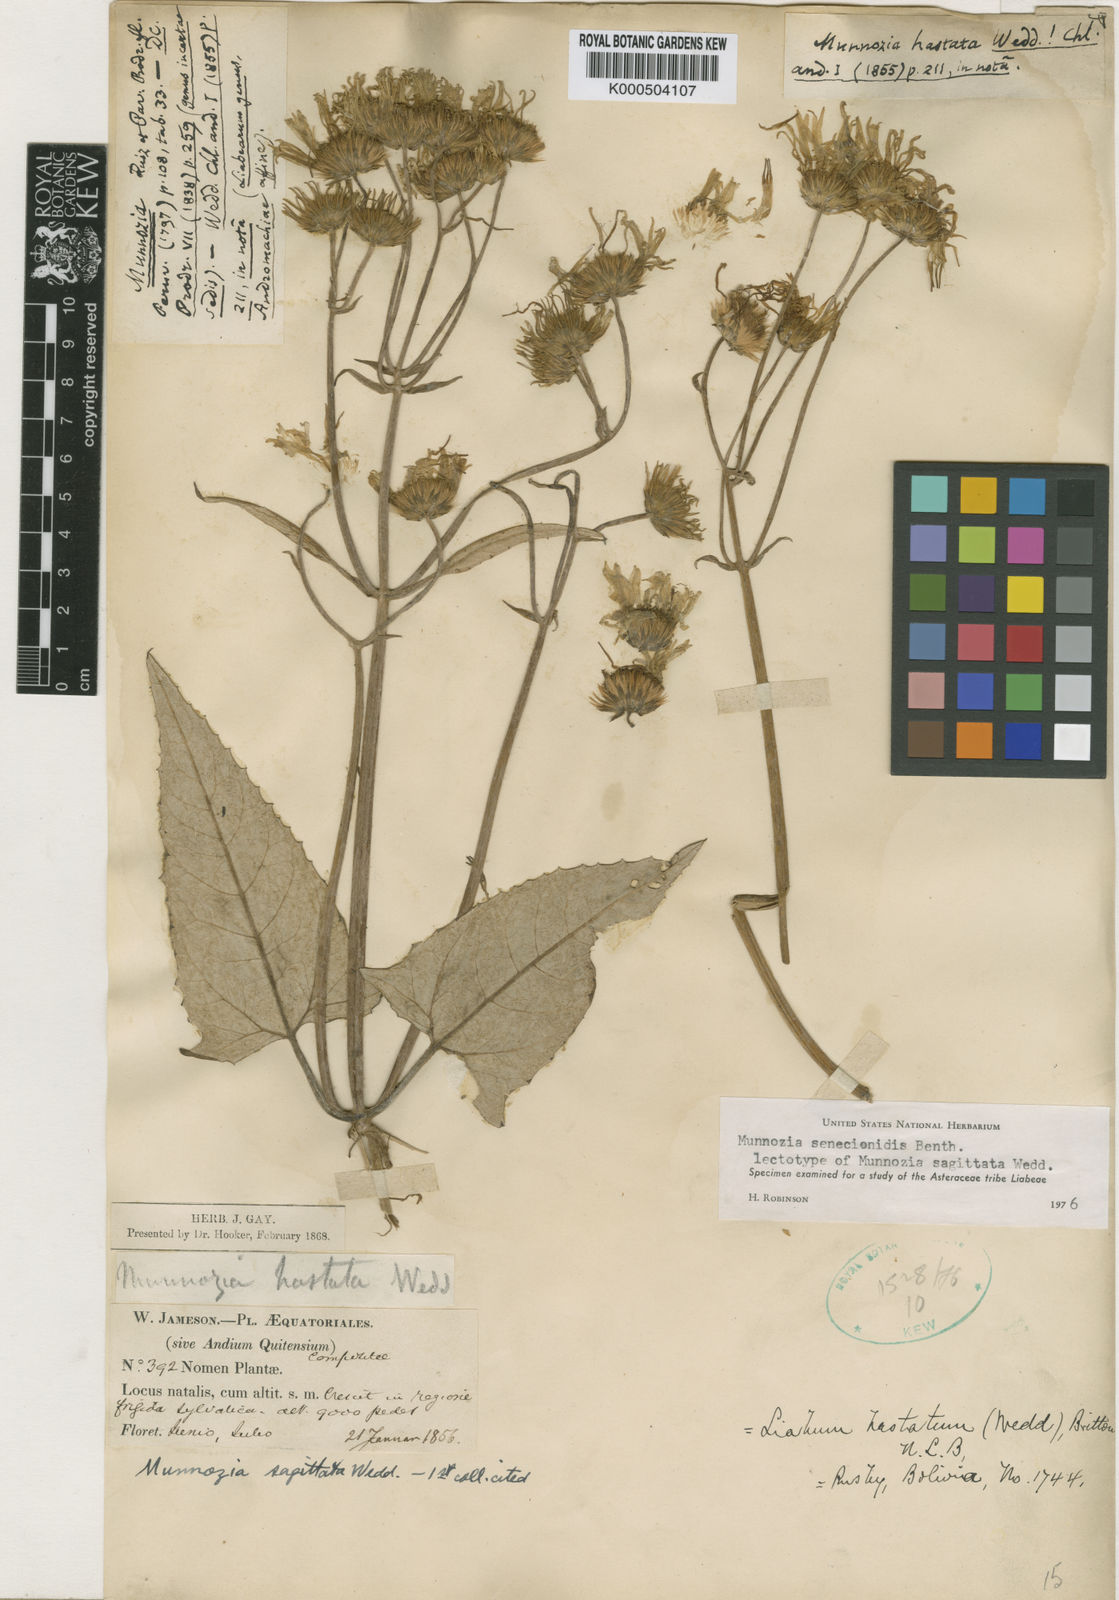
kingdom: Plantae
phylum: Tracheophyta
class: Magnoliopsida
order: Asterales
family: Asteraceae
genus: Munnozia
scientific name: Munnozia senecionidis
